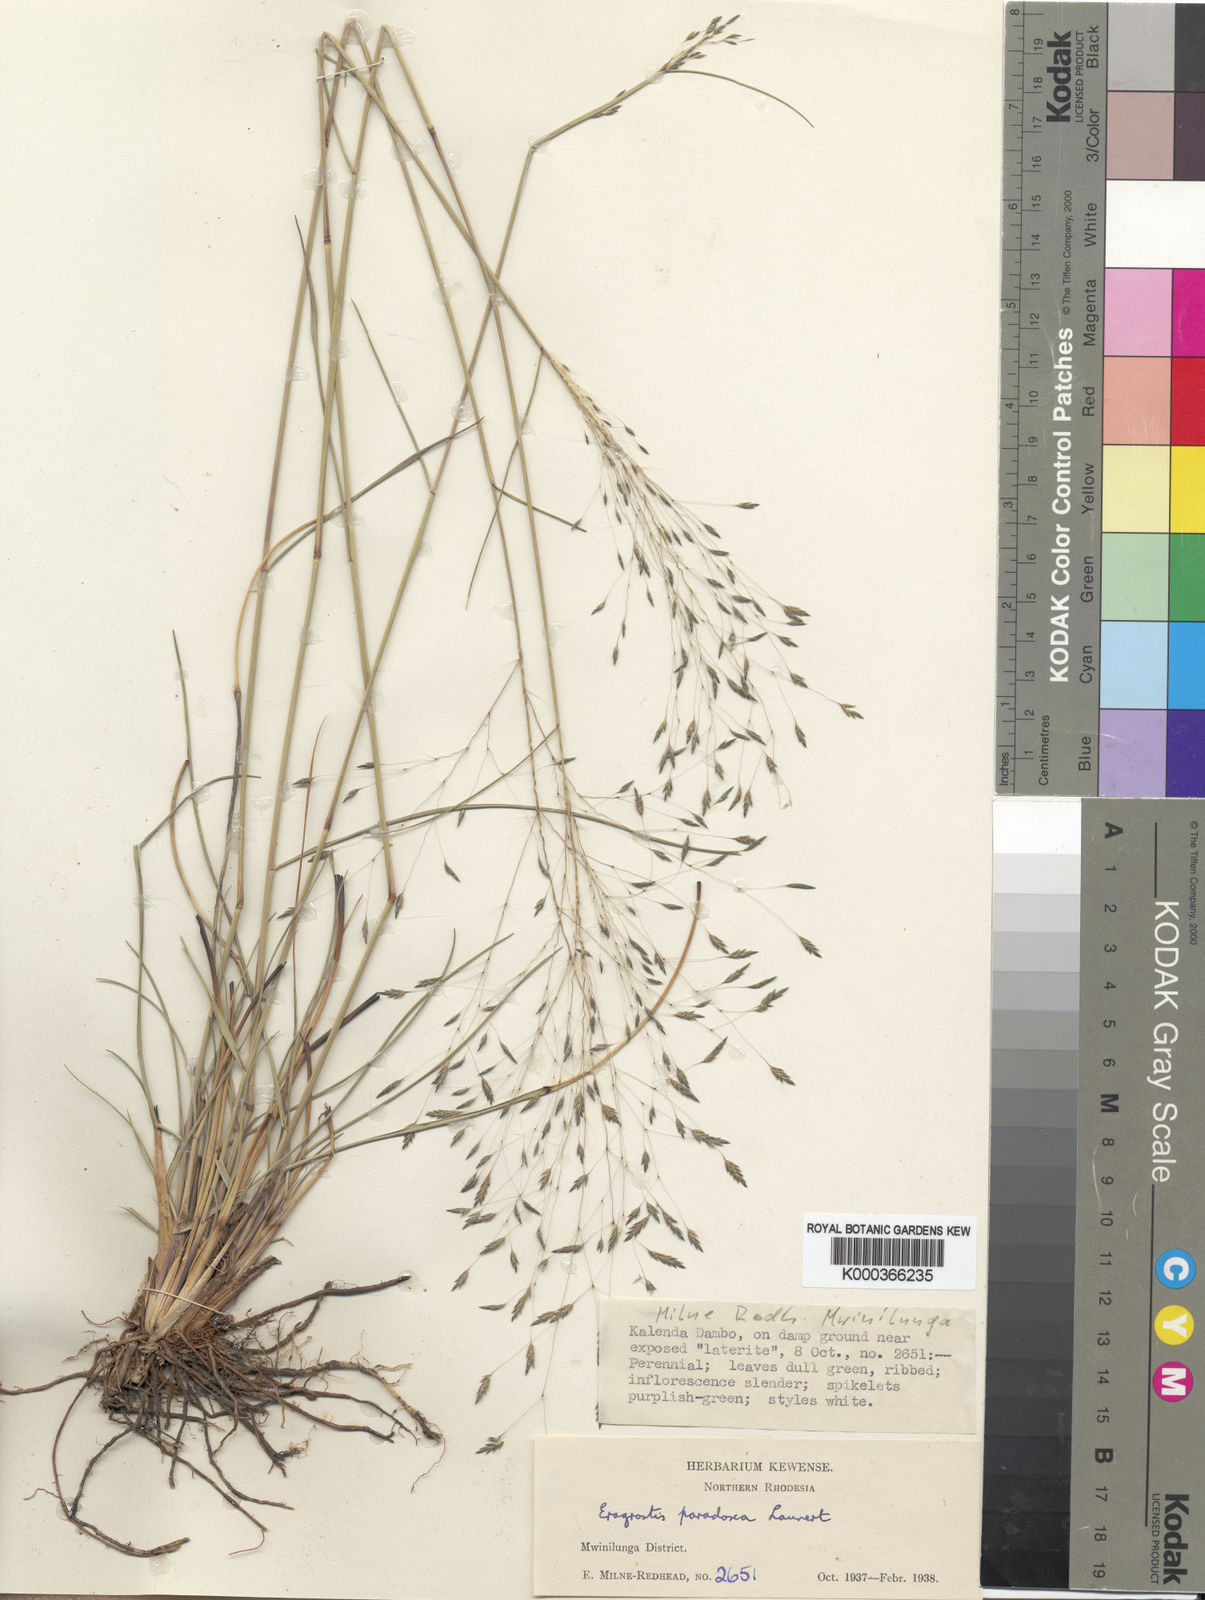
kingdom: Plantae
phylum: Tracheophyta
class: Liliopsida
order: Poales
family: Poaceae
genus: Eragrostis
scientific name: Eragrostis milnei
